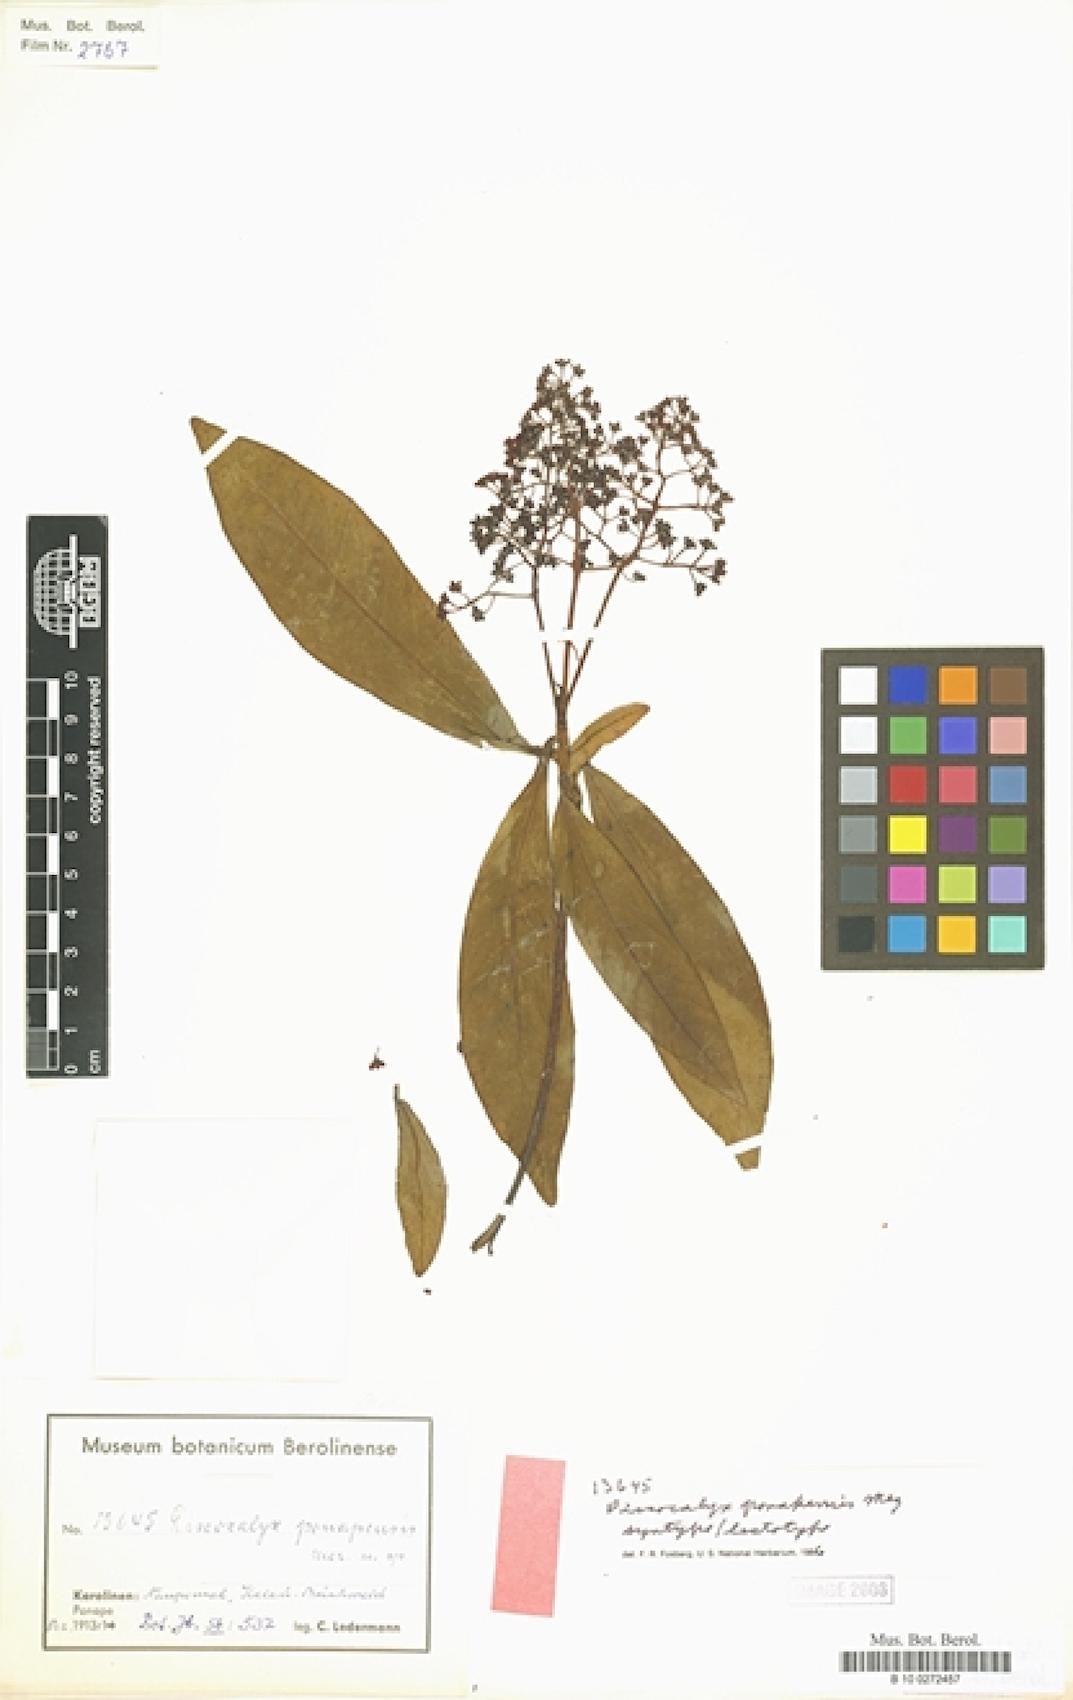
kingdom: Plantae
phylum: Tracheophyta
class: Magnoliopsida
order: Ericales
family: Primulaceae
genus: Discocalyx
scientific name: Discocalyx ponapensis
